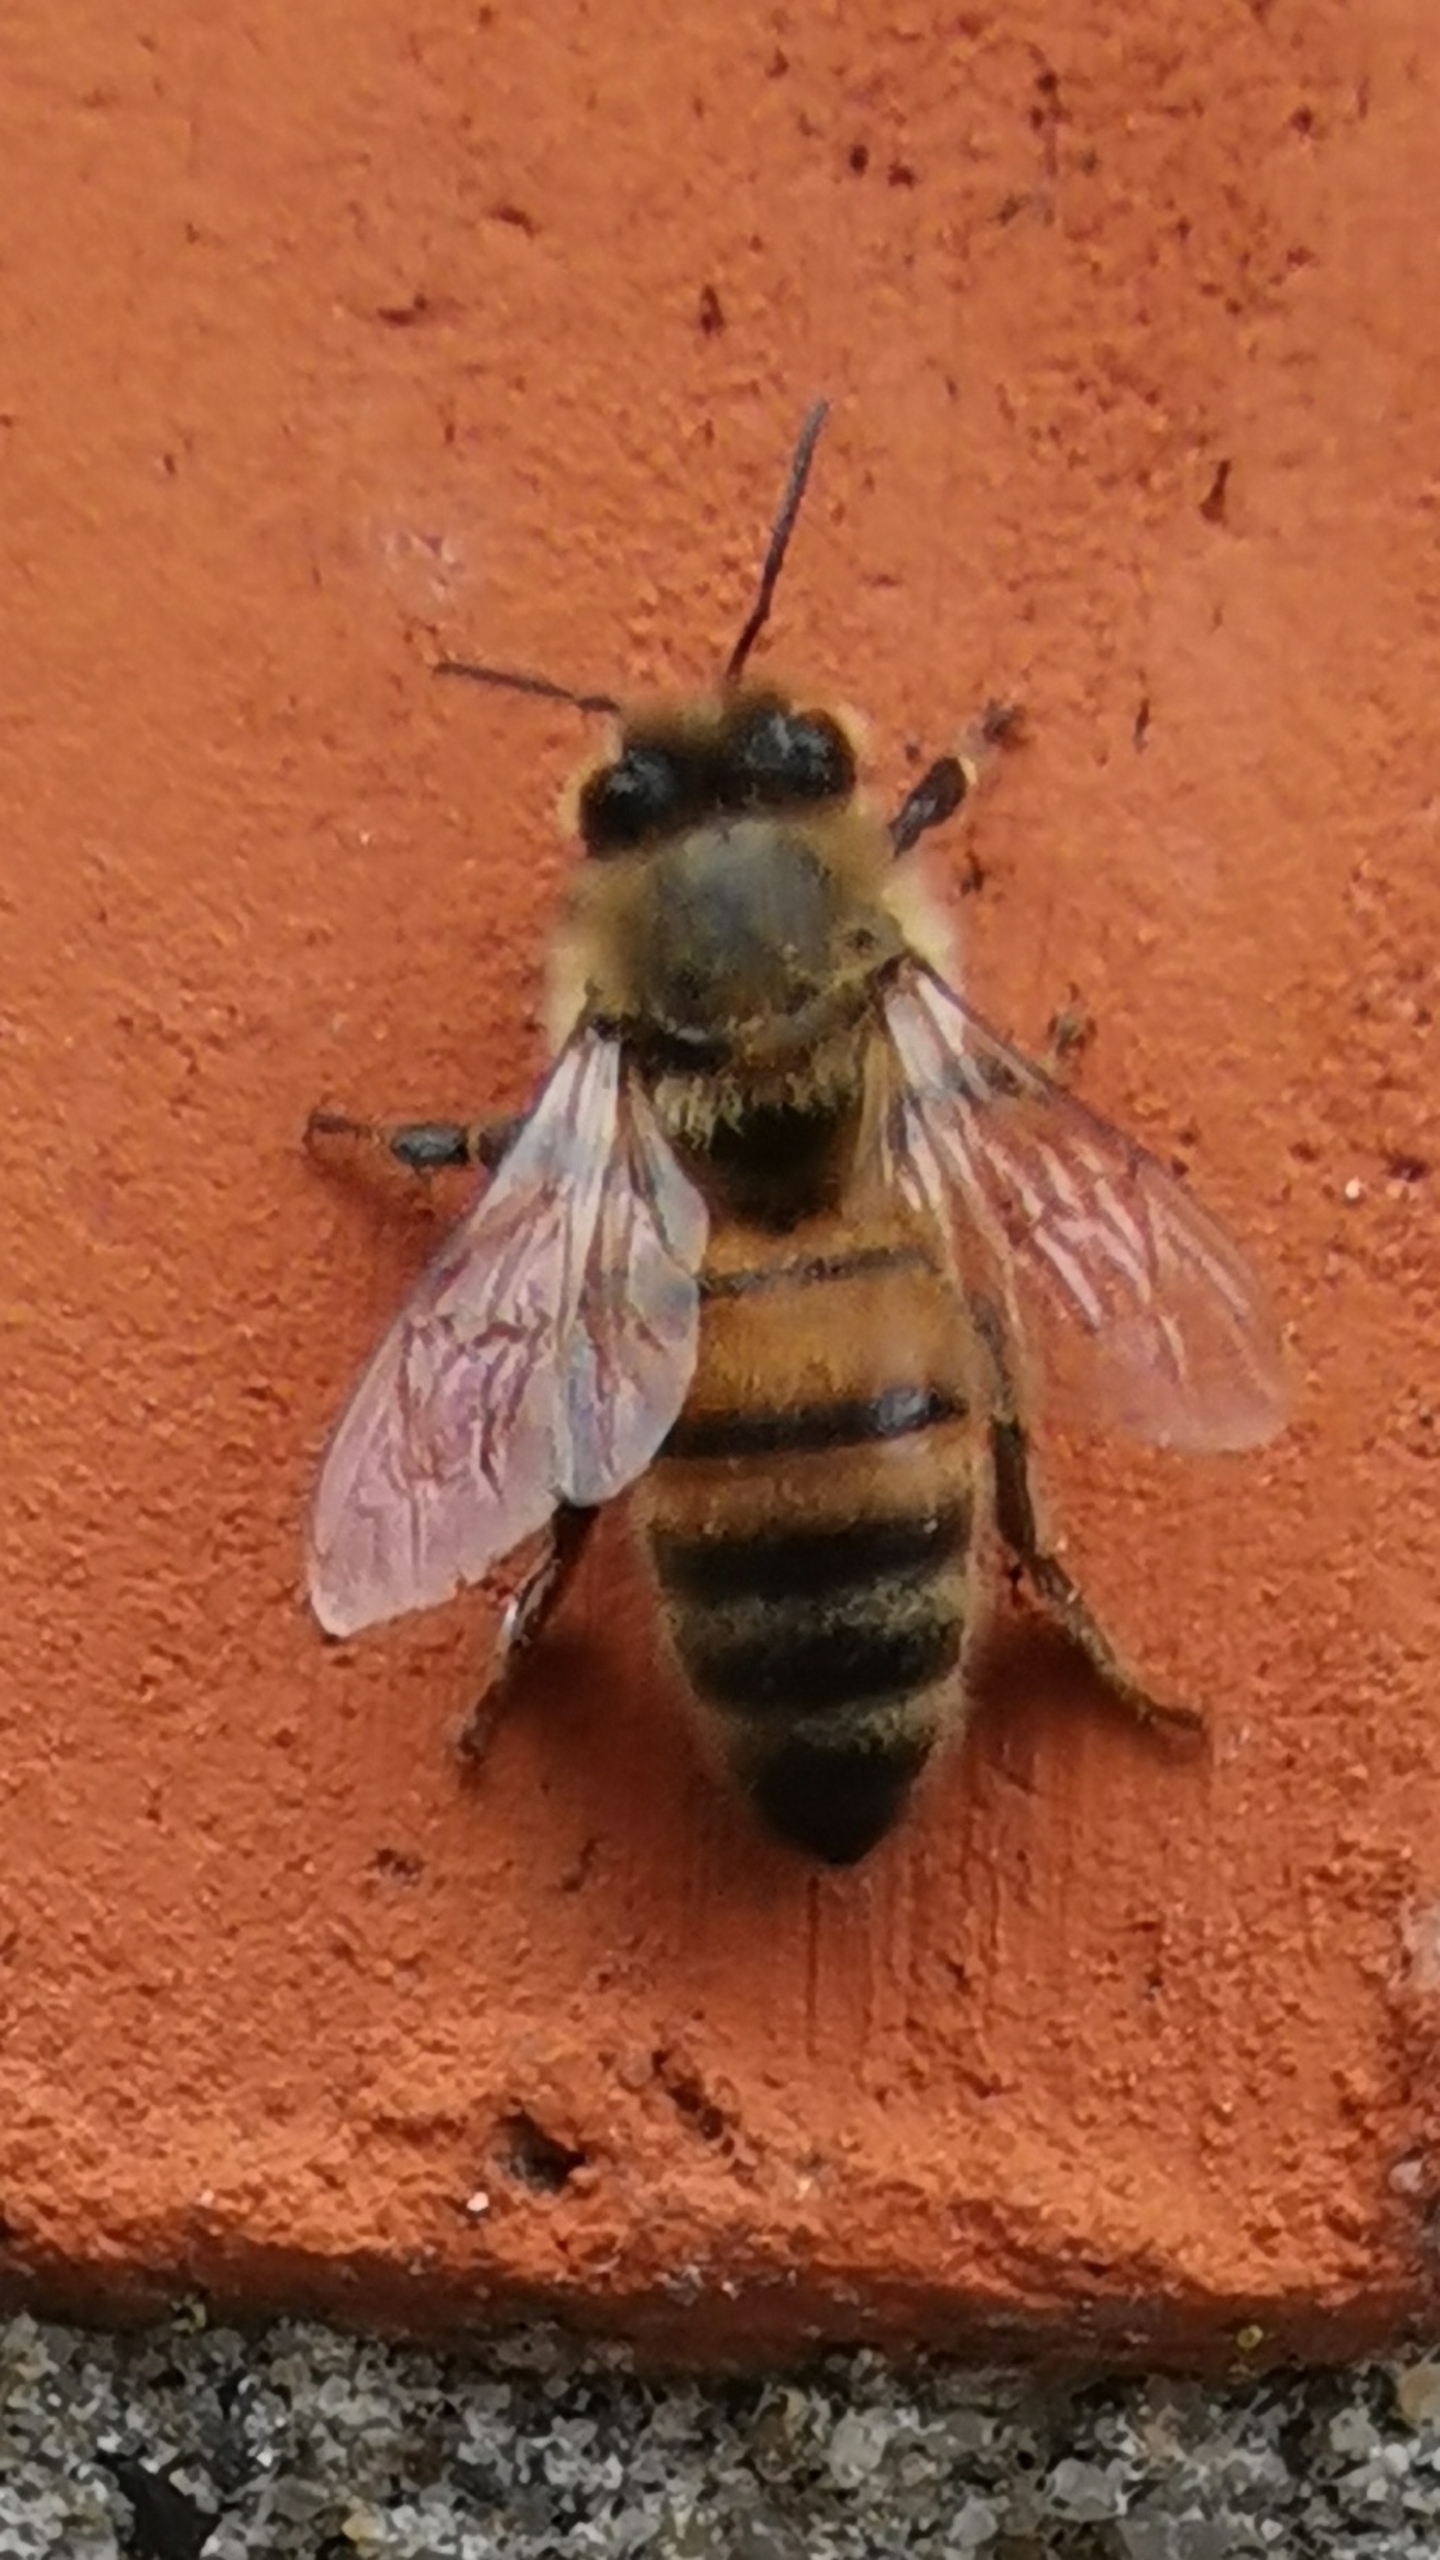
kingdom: Animalia
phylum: Arthropoda
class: Insecta
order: Hymenoptera
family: Apidae
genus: Apis
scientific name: Apis mellifera
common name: Honningbi
